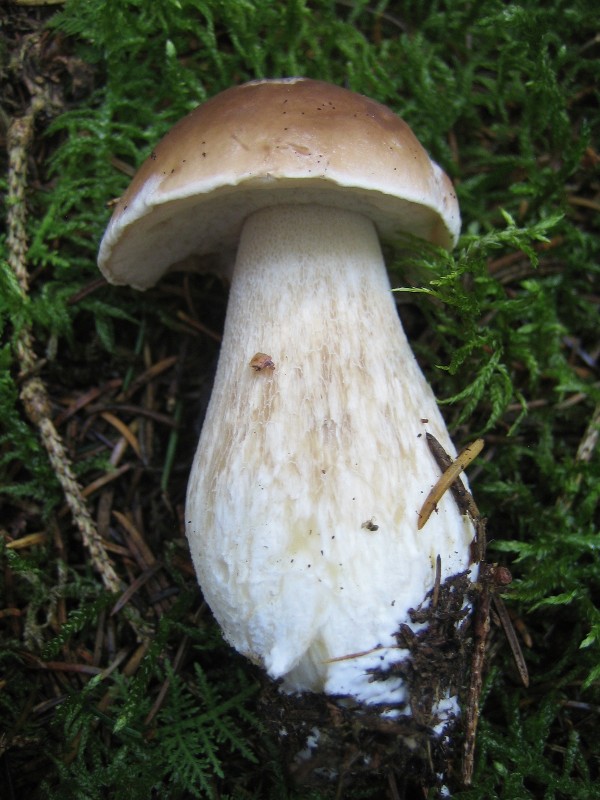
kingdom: Fungi
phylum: Basidiomycota
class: Agaricomycetes
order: Boletales
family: Boletaceae
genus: Boletus
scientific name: Boletus edulis
